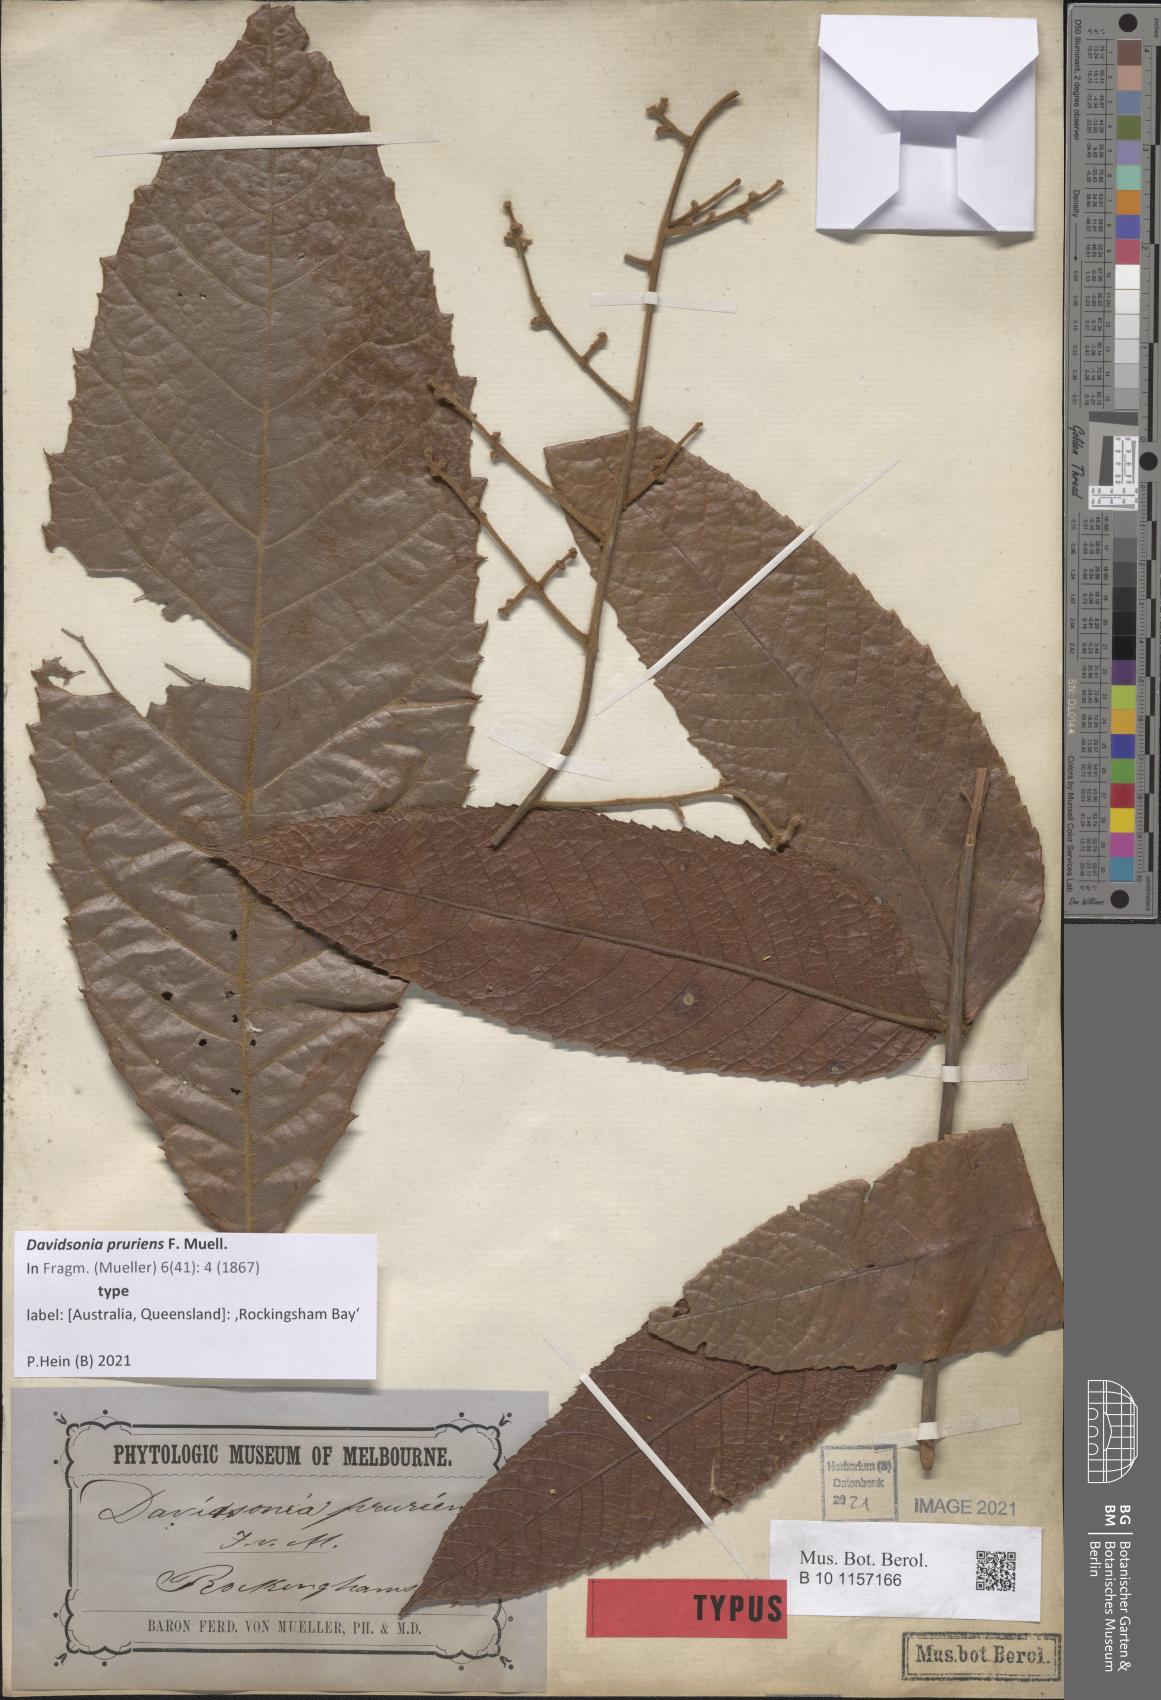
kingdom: Plantae
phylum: Tracheophyta
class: Magnoliopsida
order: Oxalidales
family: Cunoniaceae
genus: Davidsonia
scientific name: Davidsonia pruriens
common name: Do-rog
